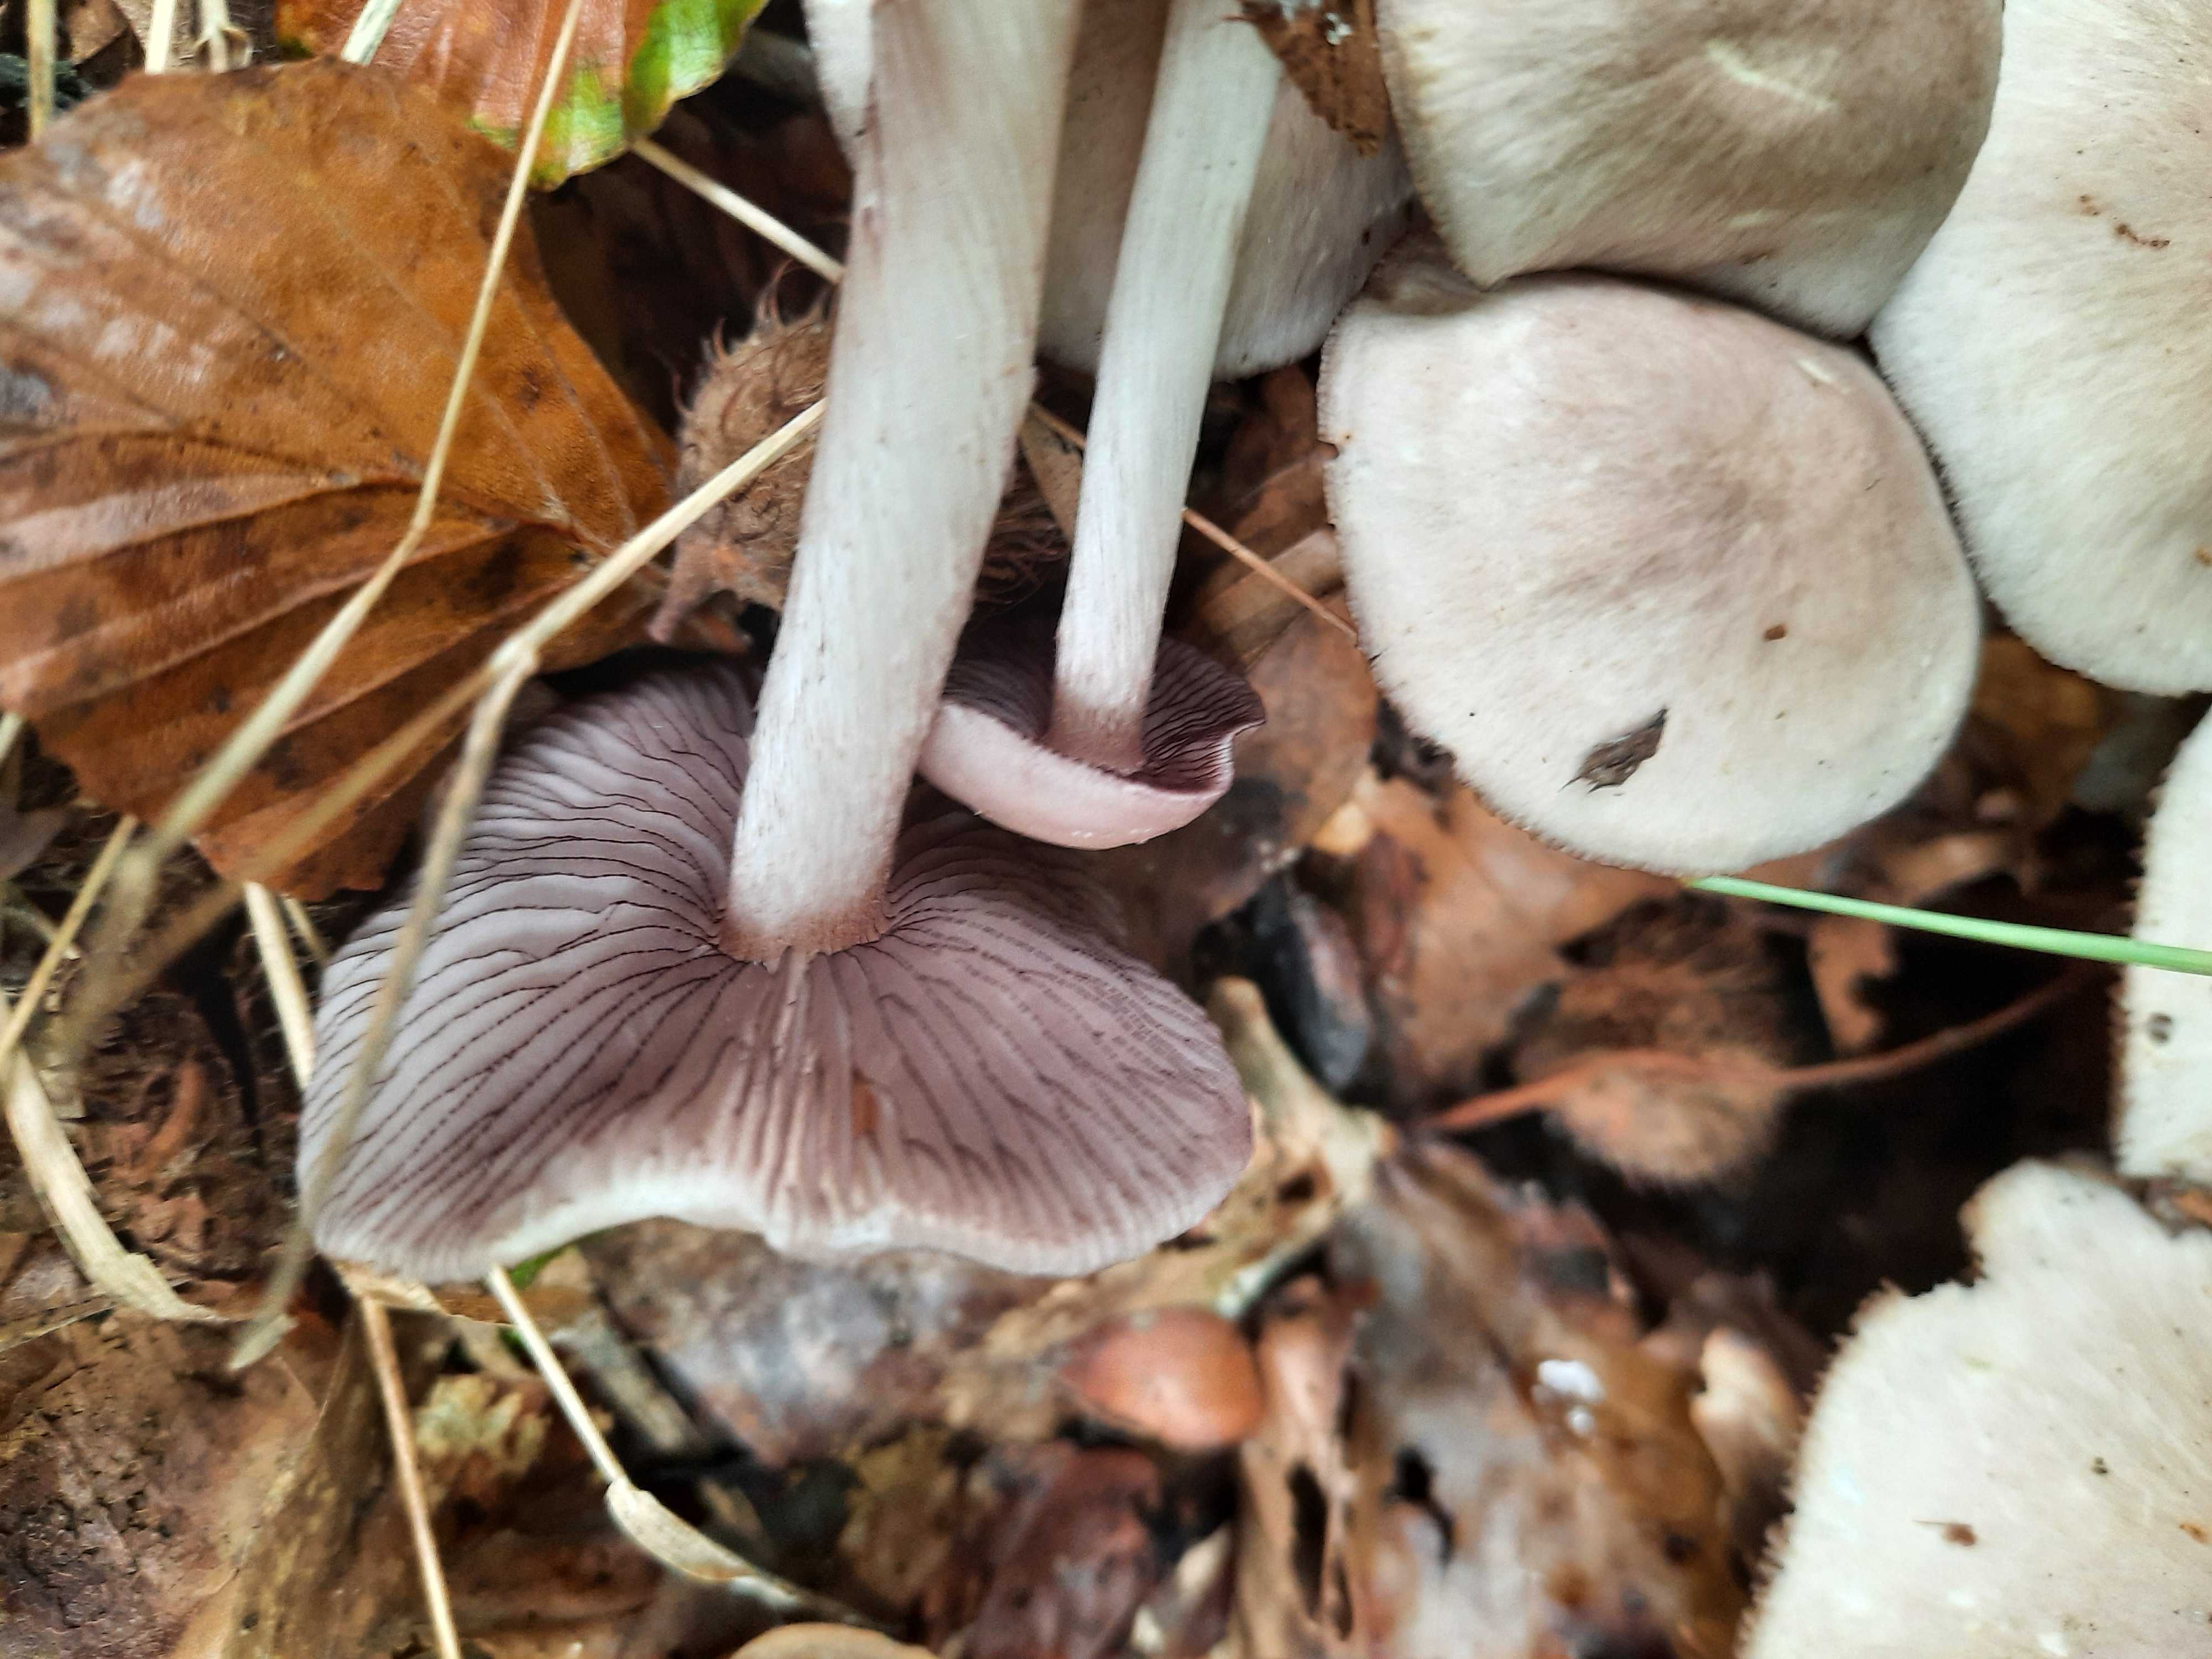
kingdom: Fungi
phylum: Basidiomycota
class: Agaricomycetes
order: Agaricales
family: Mycenaceae
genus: Mycena
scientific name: Mycena pelianthina
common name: mørkbladet huesvamp
